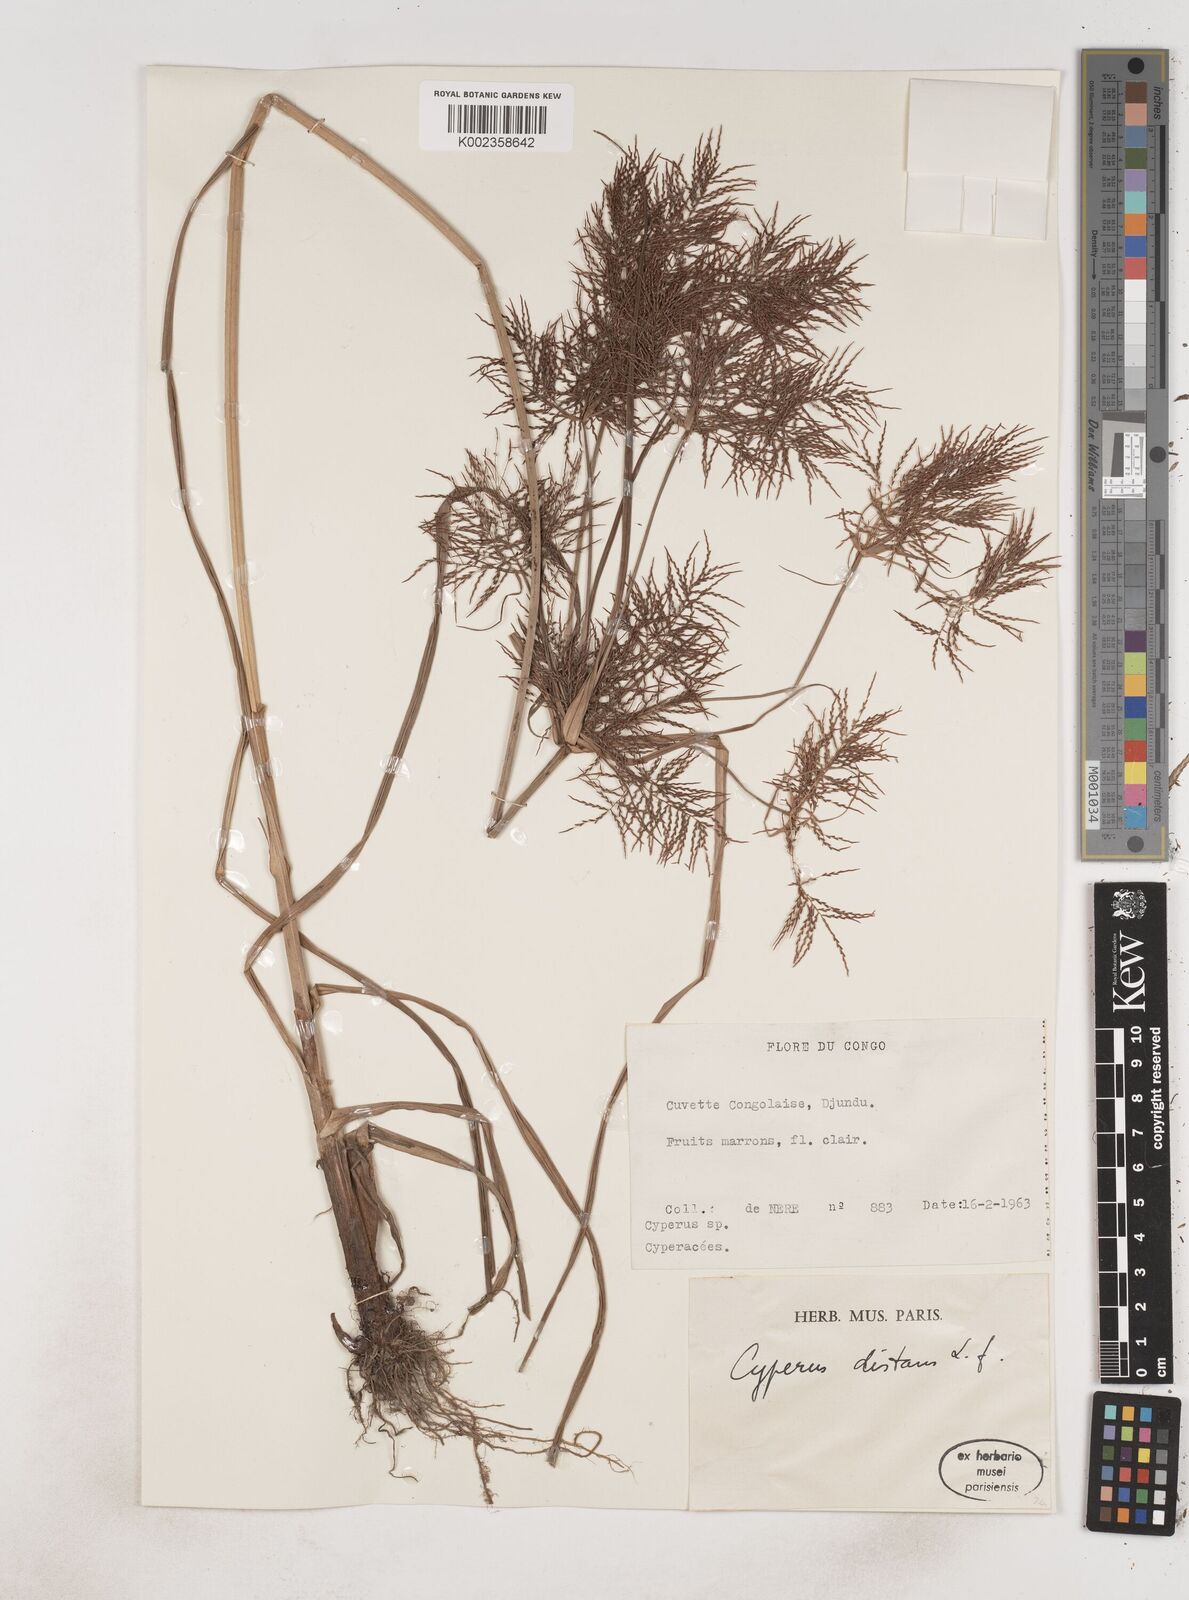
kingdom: Plantae
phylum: Tracheophyta
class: Liliopsida
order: Poales
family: Cyperaceae
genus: Cyperus
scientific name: Cyperus distans
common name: Slender cyperus
